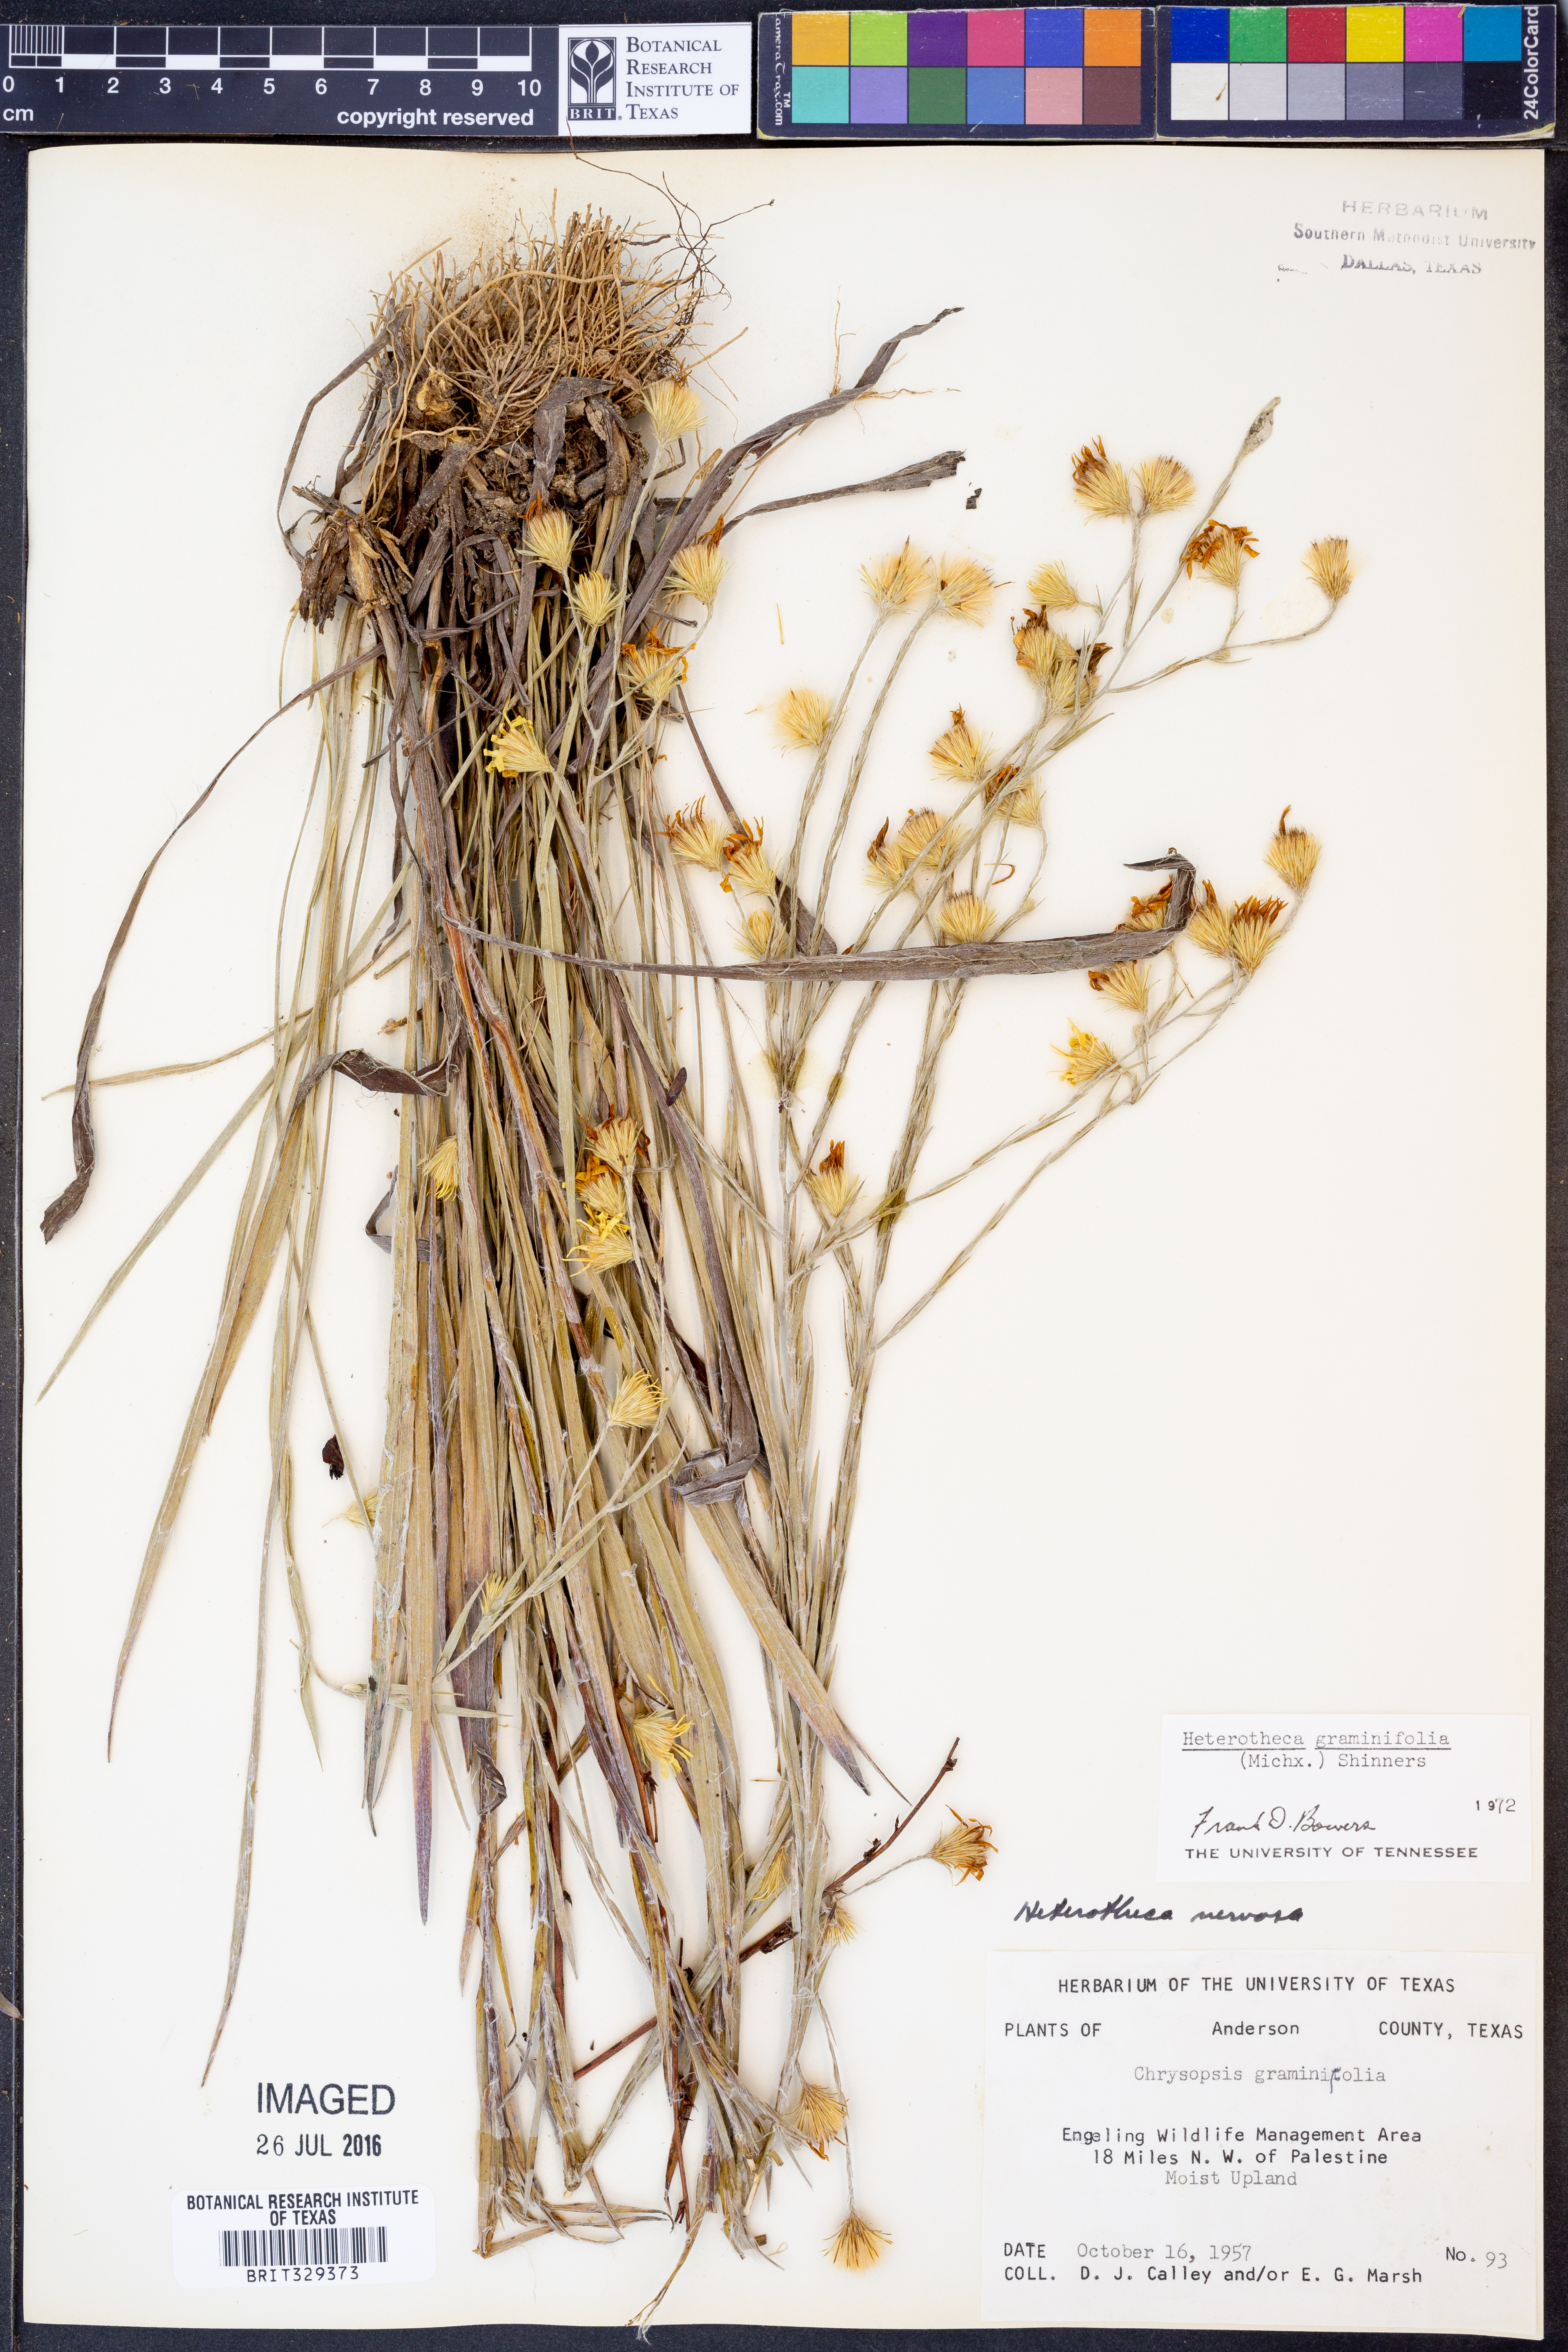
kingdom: Plantae
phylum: Tracheophyta
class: Magnoliopsida
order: Asterales
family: Asteraceae
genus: Pityopsis
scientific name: Pityopsis graminifolia
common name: Grass-leaf golden-aster
